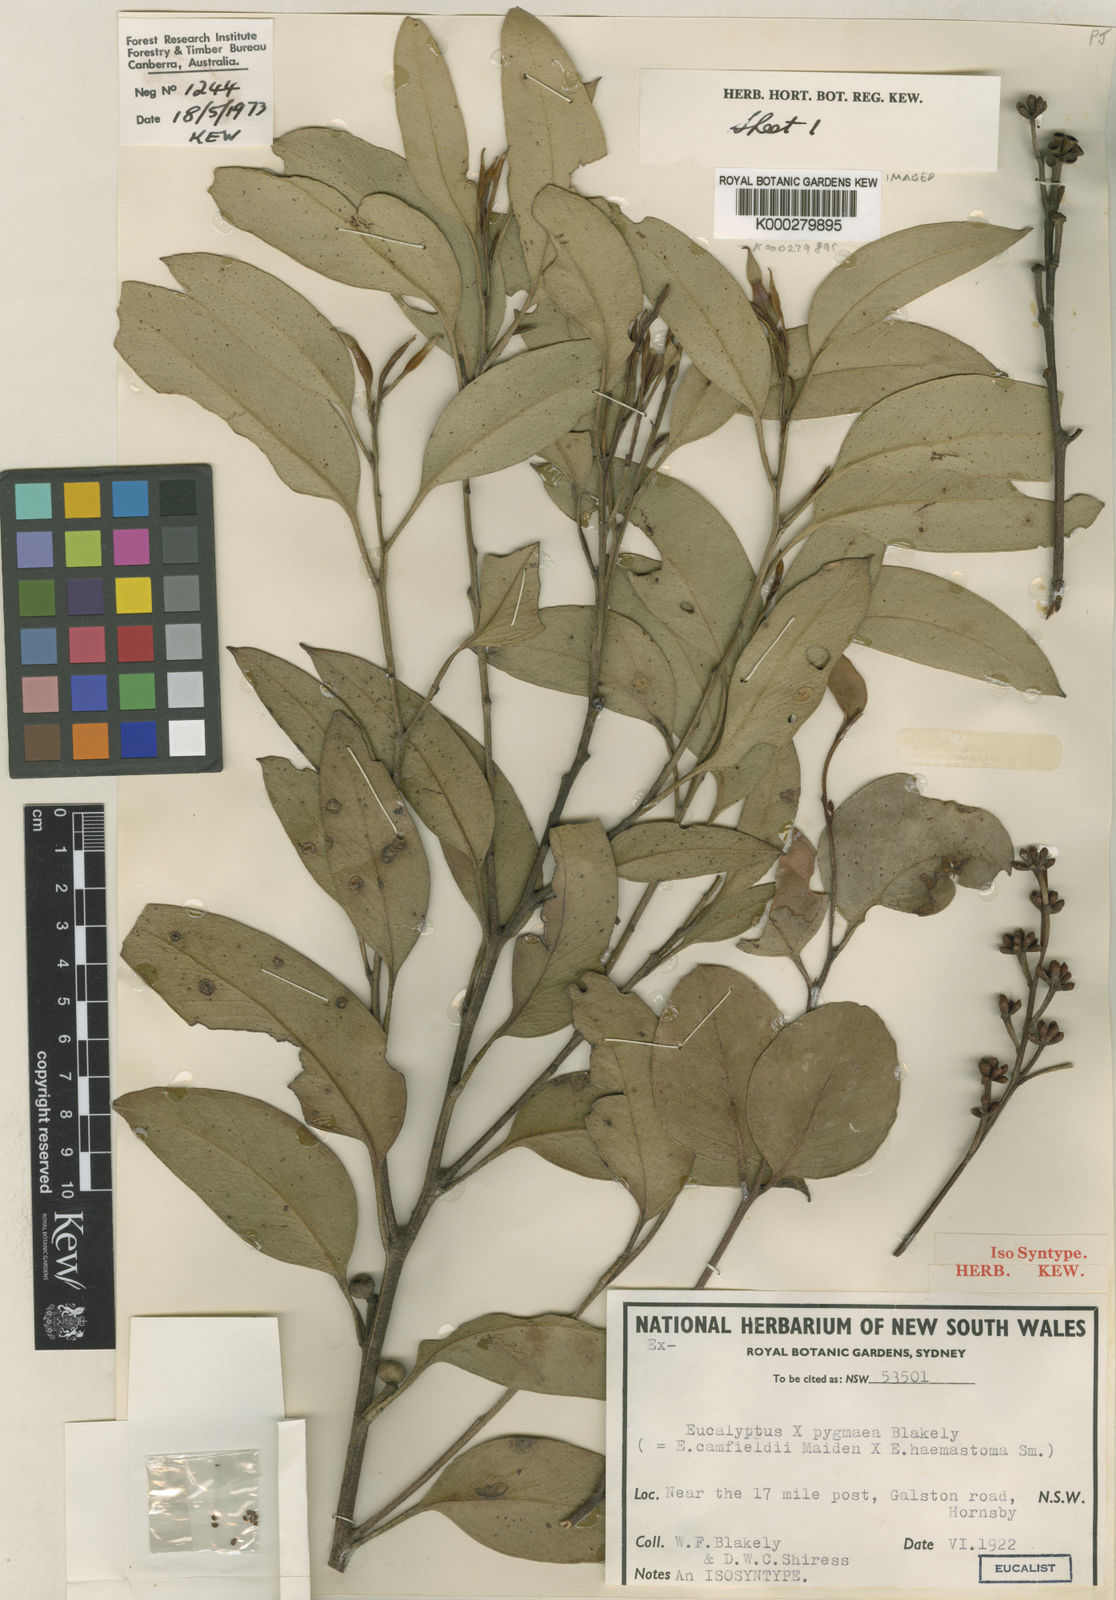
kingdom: Plantae
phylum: Tracheophyta
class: Magnoliopsida
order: Myrtales
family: Myrtaceae
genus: Eucalyptus
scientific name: Eucalyptus pygmaea
